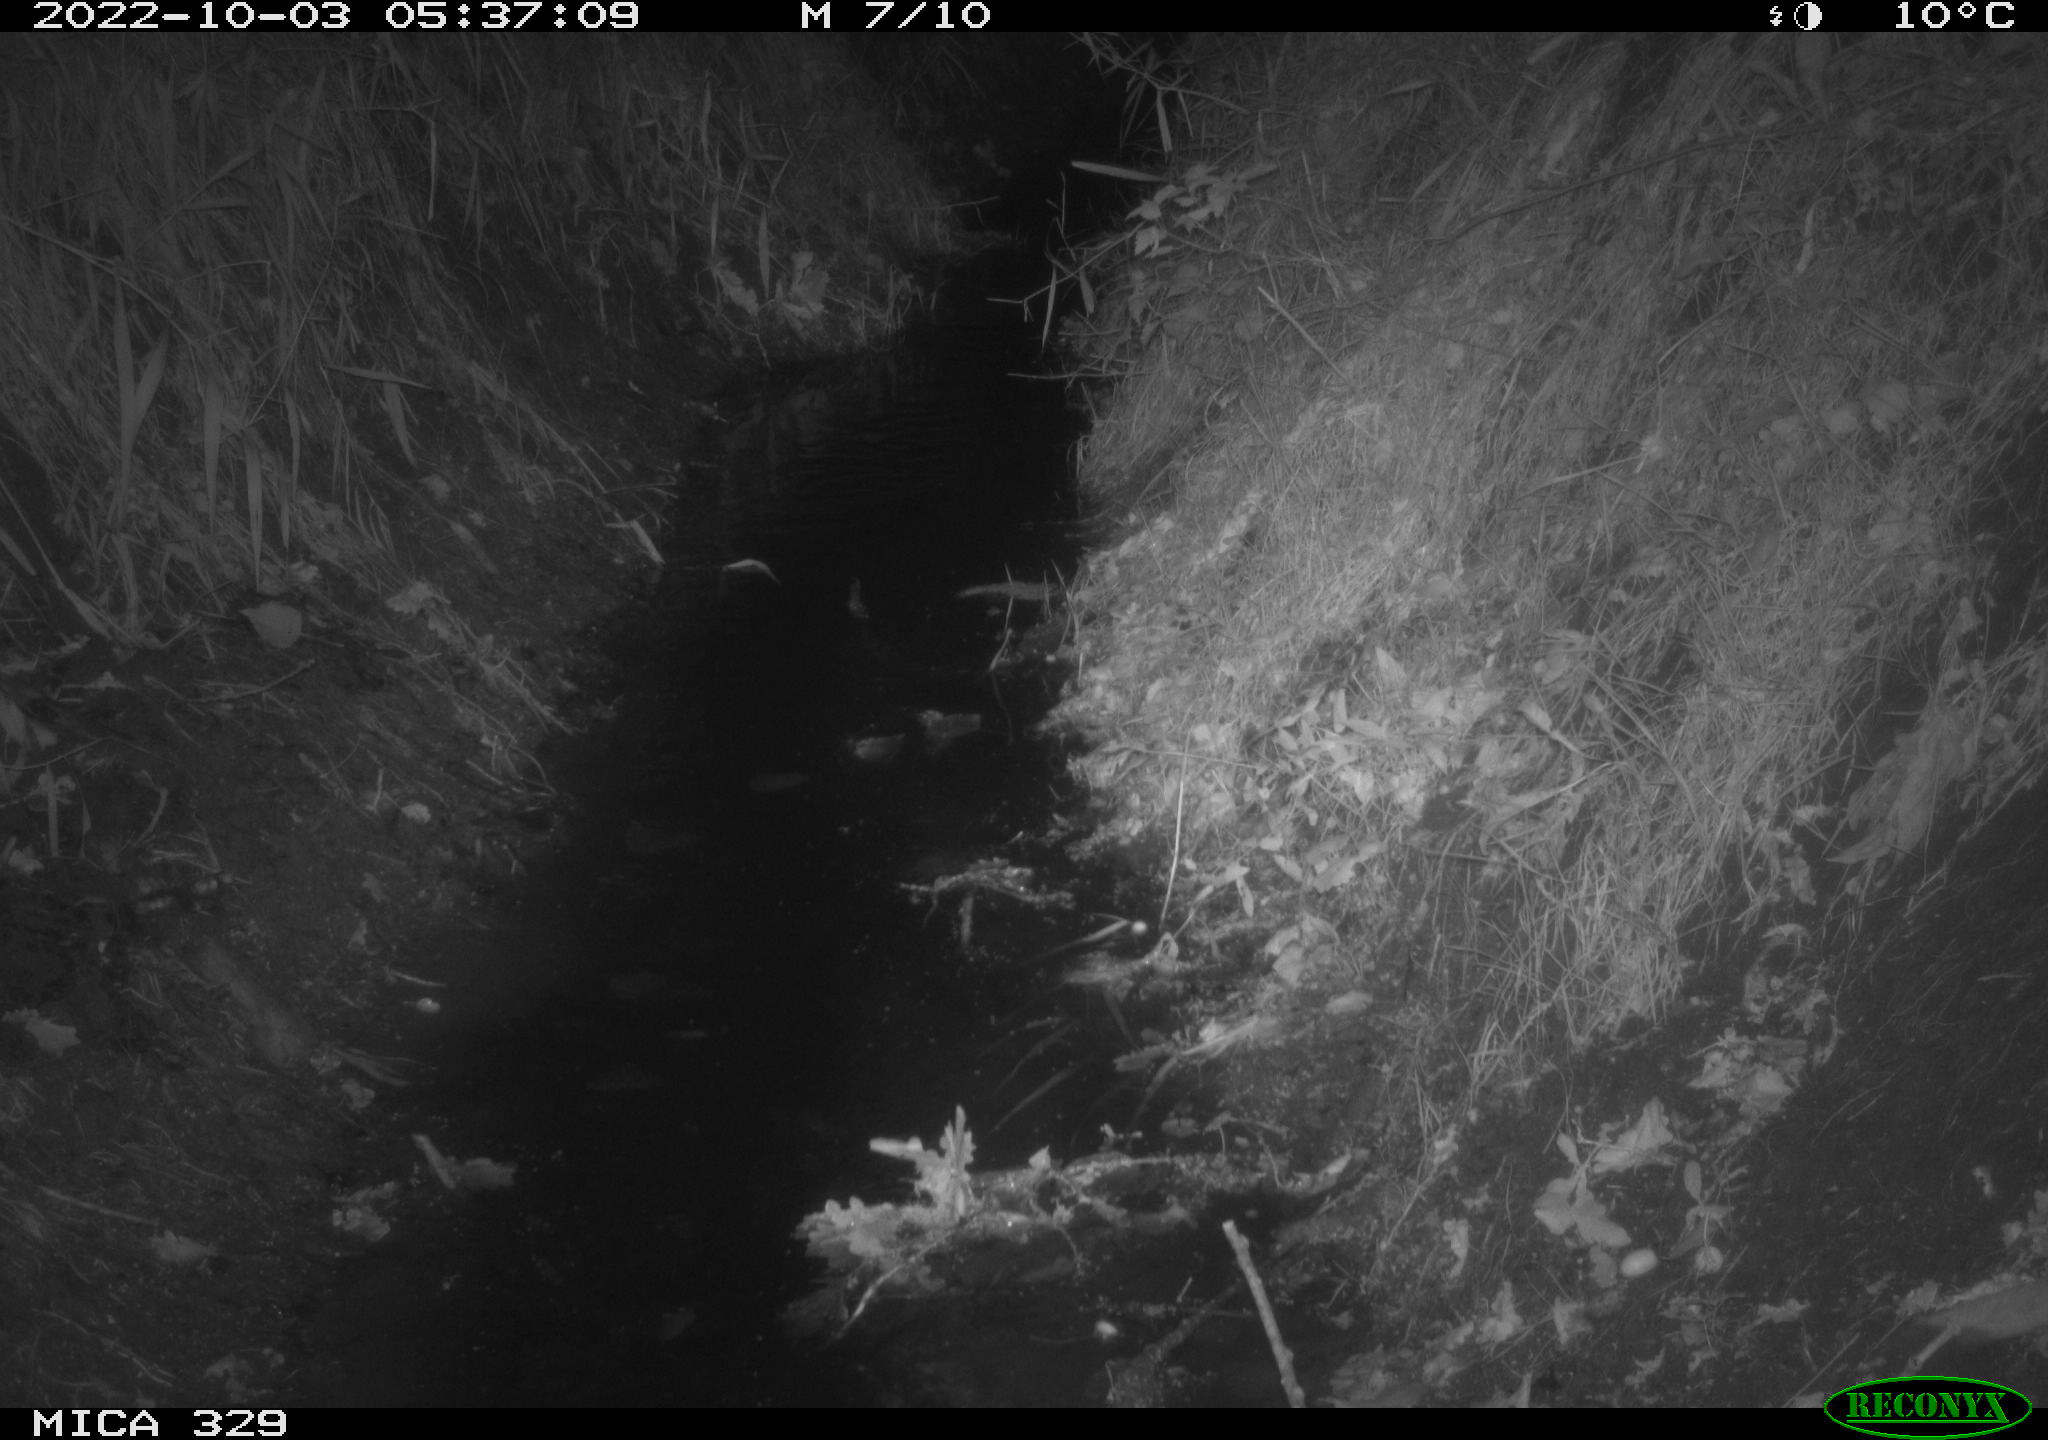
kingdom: Animalia
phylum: Chordata
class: Mammalia
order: Rodentia
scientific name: Rodentia
